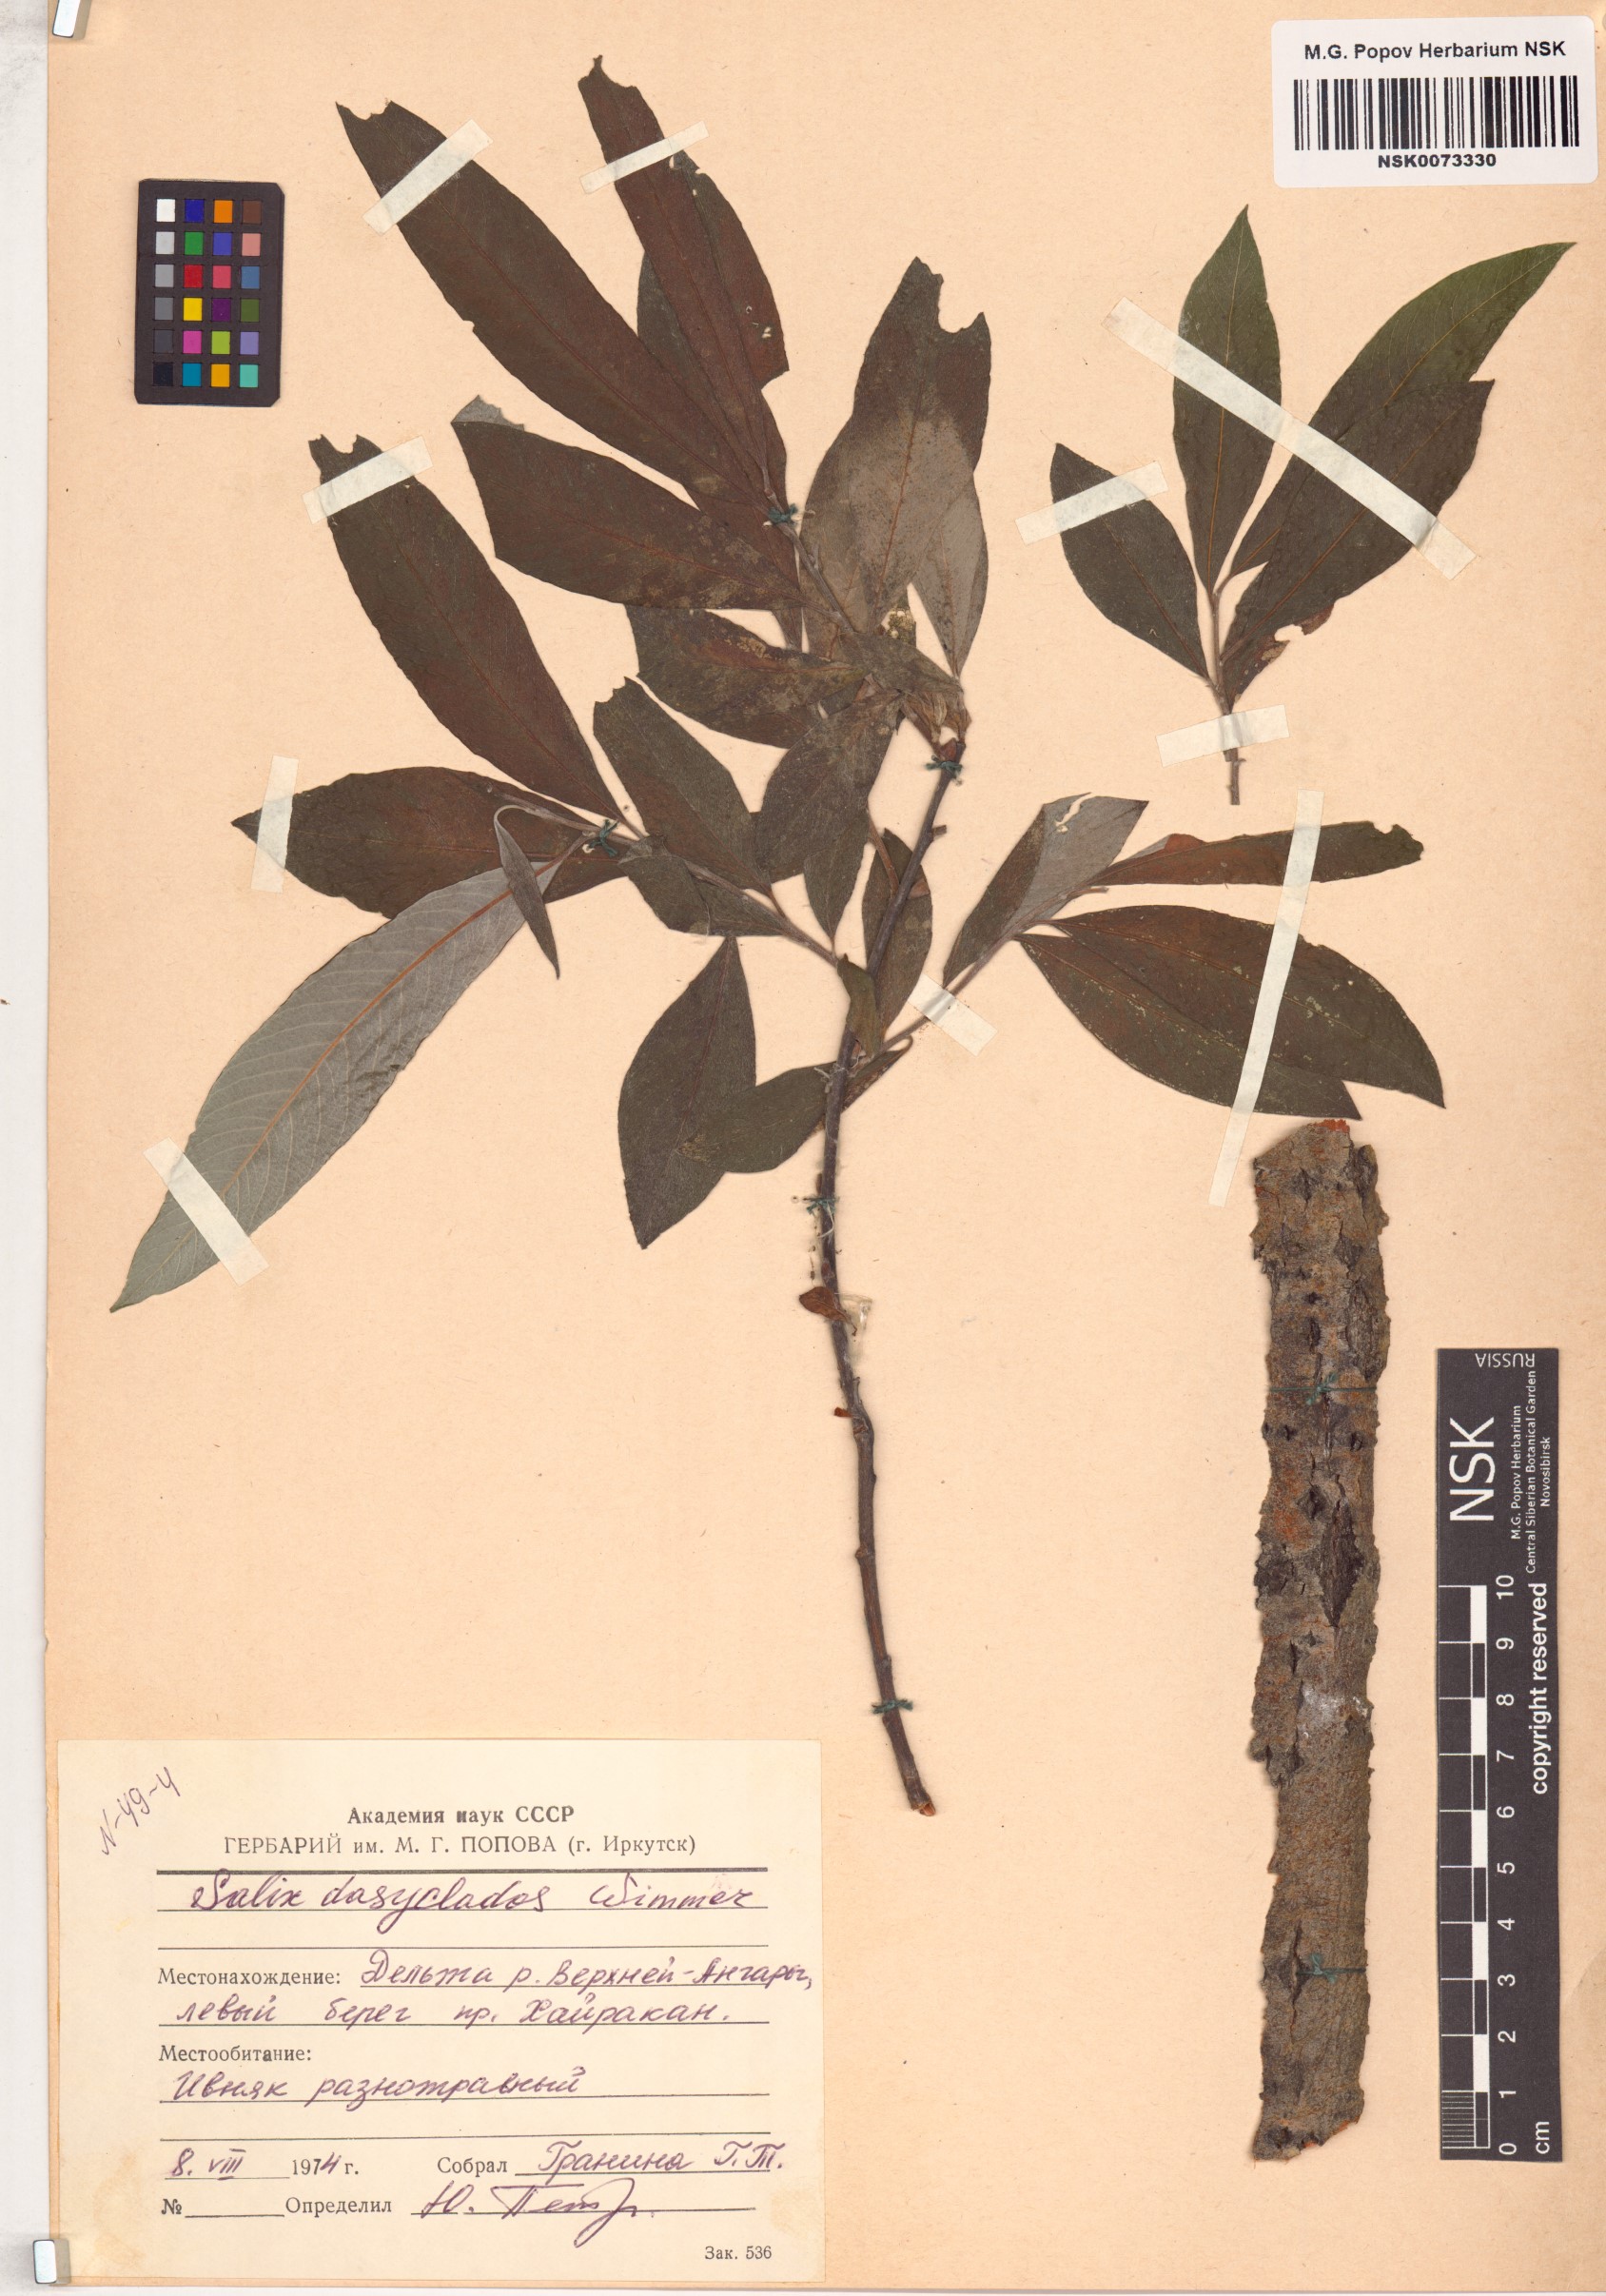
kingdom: Plantae
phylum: Tracheophyta
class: Magnoliopsida
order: Malpighiales
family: Salicaceae
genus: Salix
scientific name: Salix gmelinii
